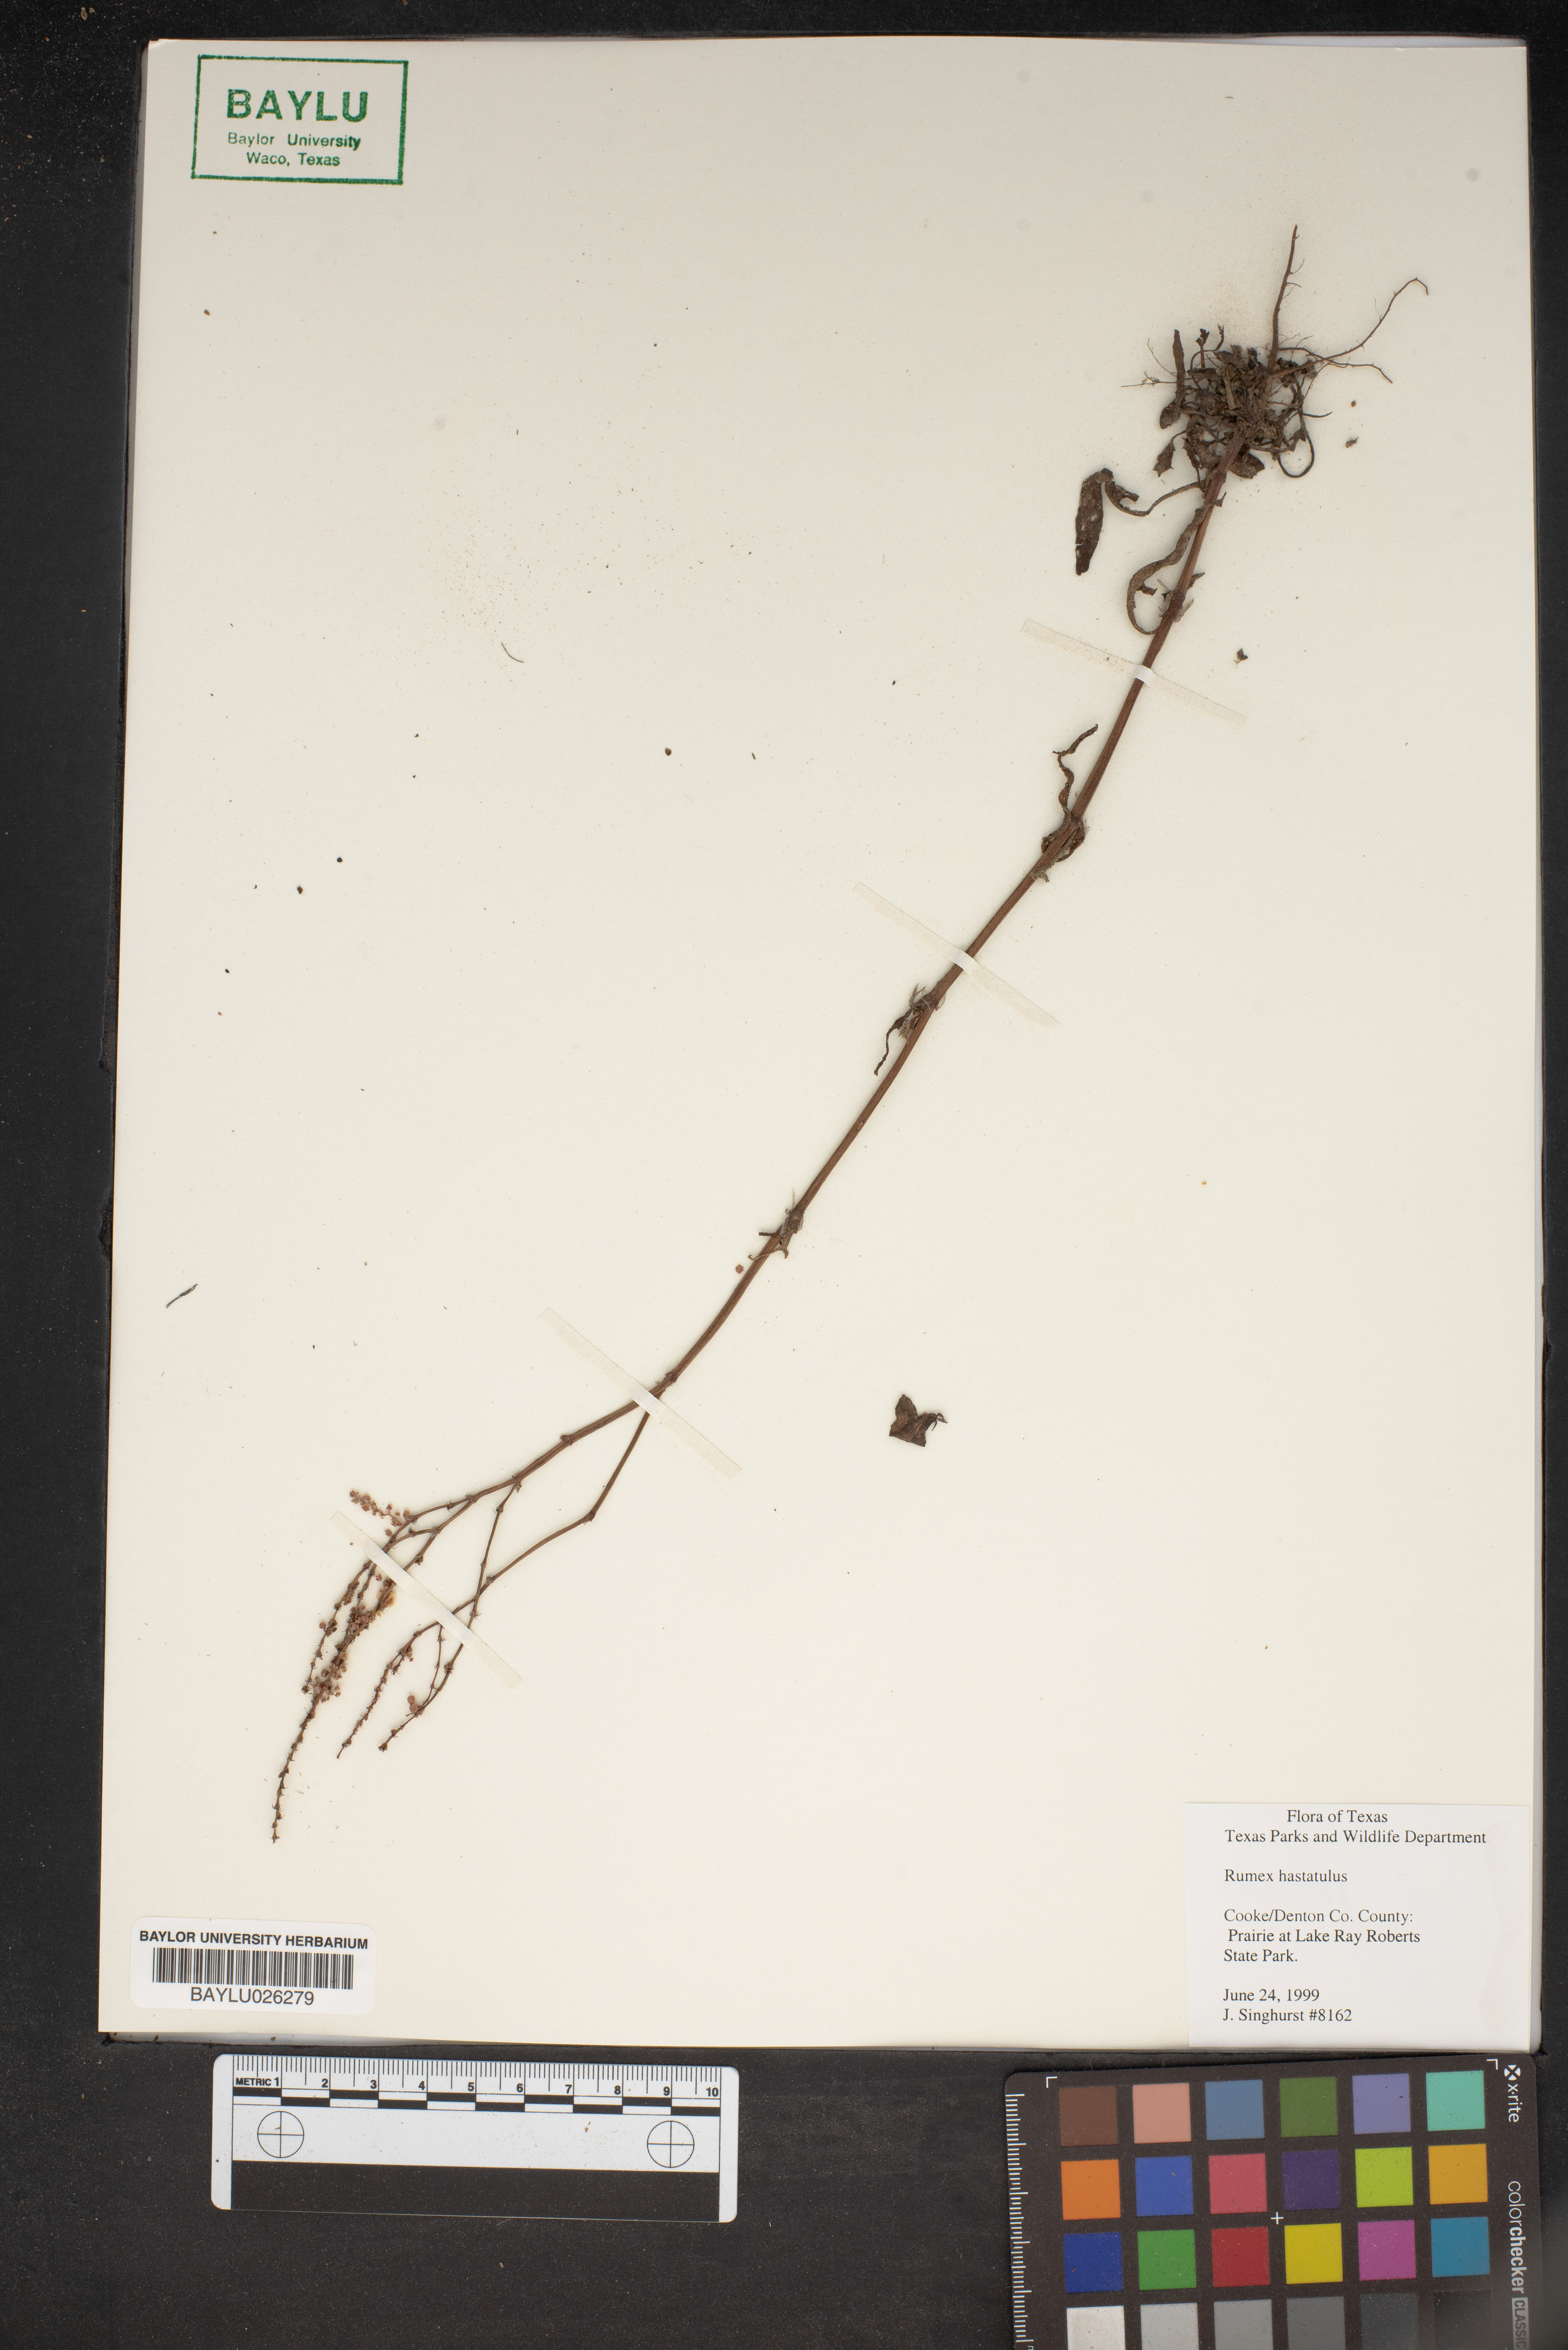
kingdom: Plantae
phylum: Tracheophyta
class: Magnoliopsida
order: Caryophyllales
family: Polygonaceae
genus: Rumex
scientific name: Rumex hastatulus
